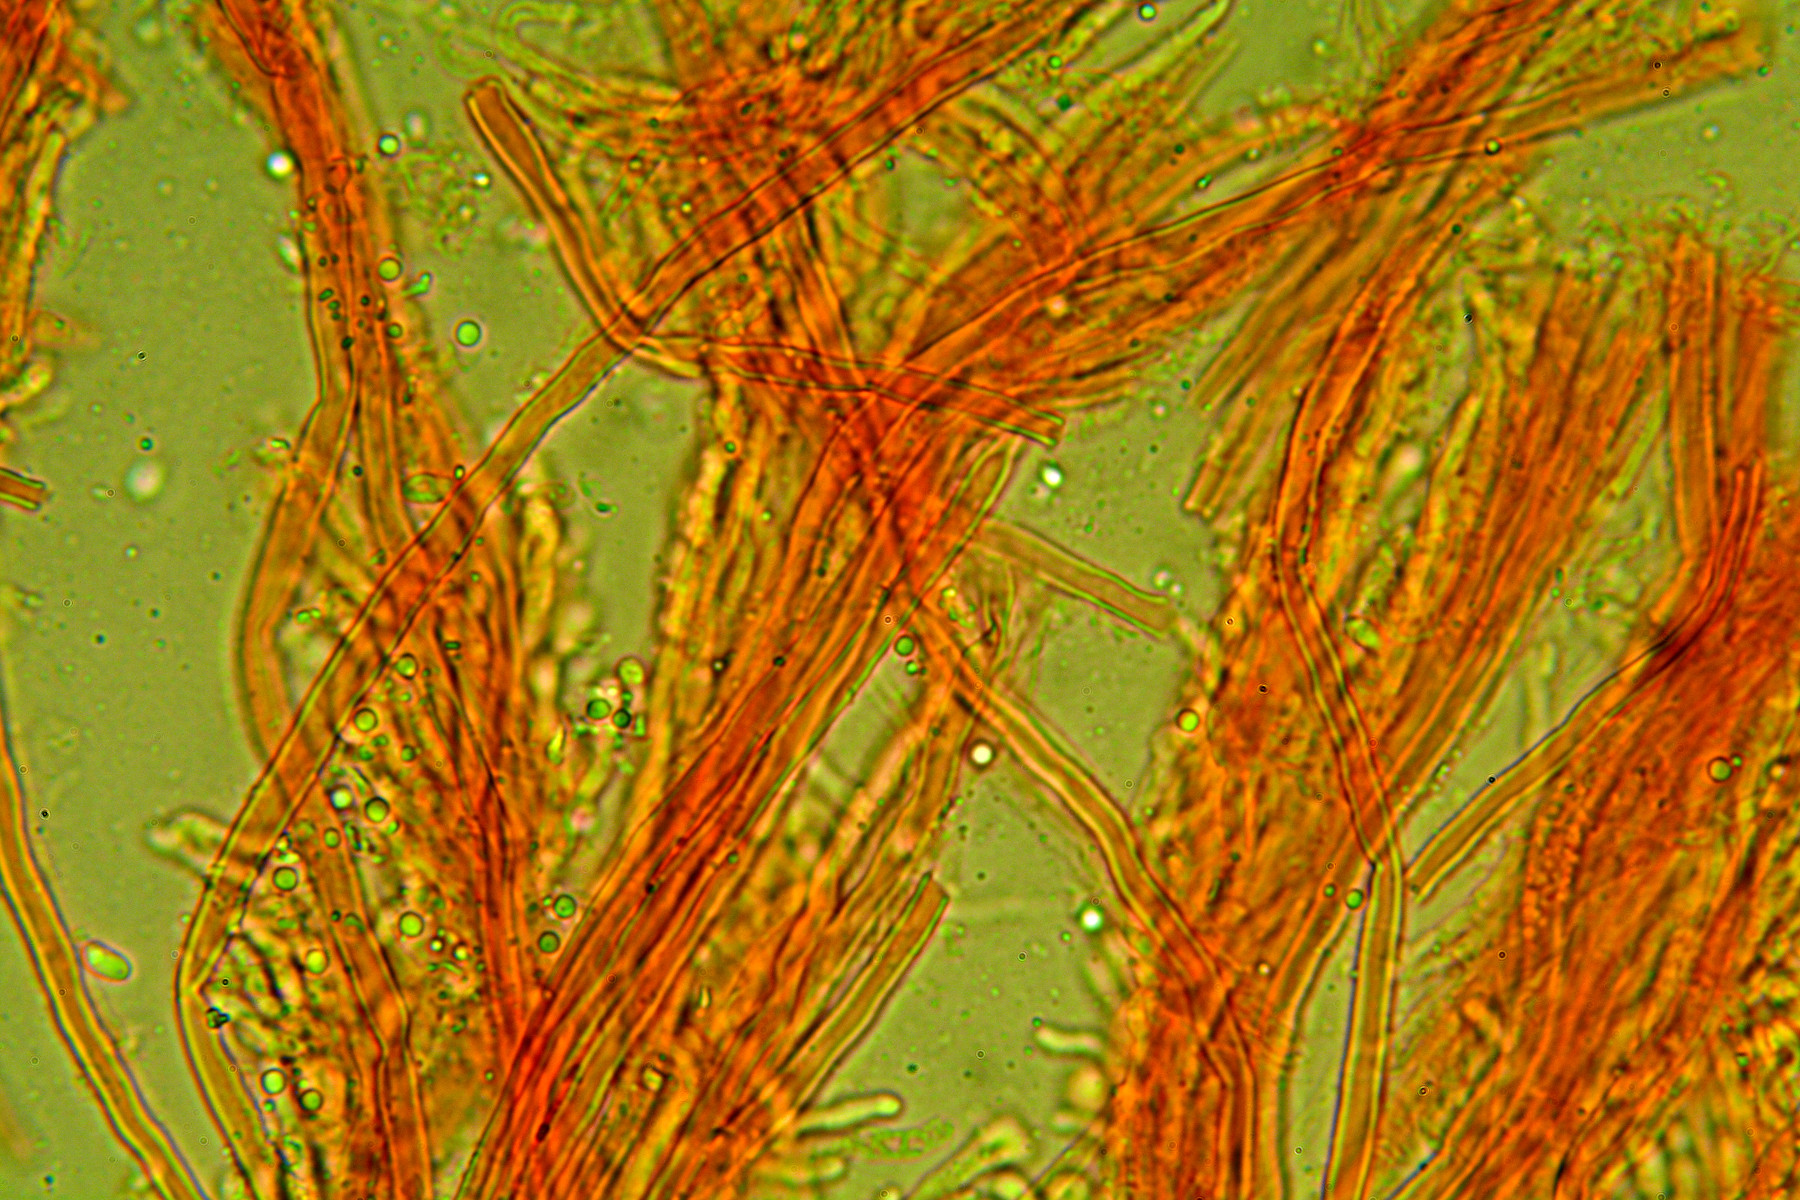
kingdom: Fungi
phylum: Basidiomycota
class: Agaricomycetes
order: Polyporales
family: Meruliaceae
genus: Mycoaciella
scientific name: Mycoaciella bispora
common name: stalaktit-vokspig
